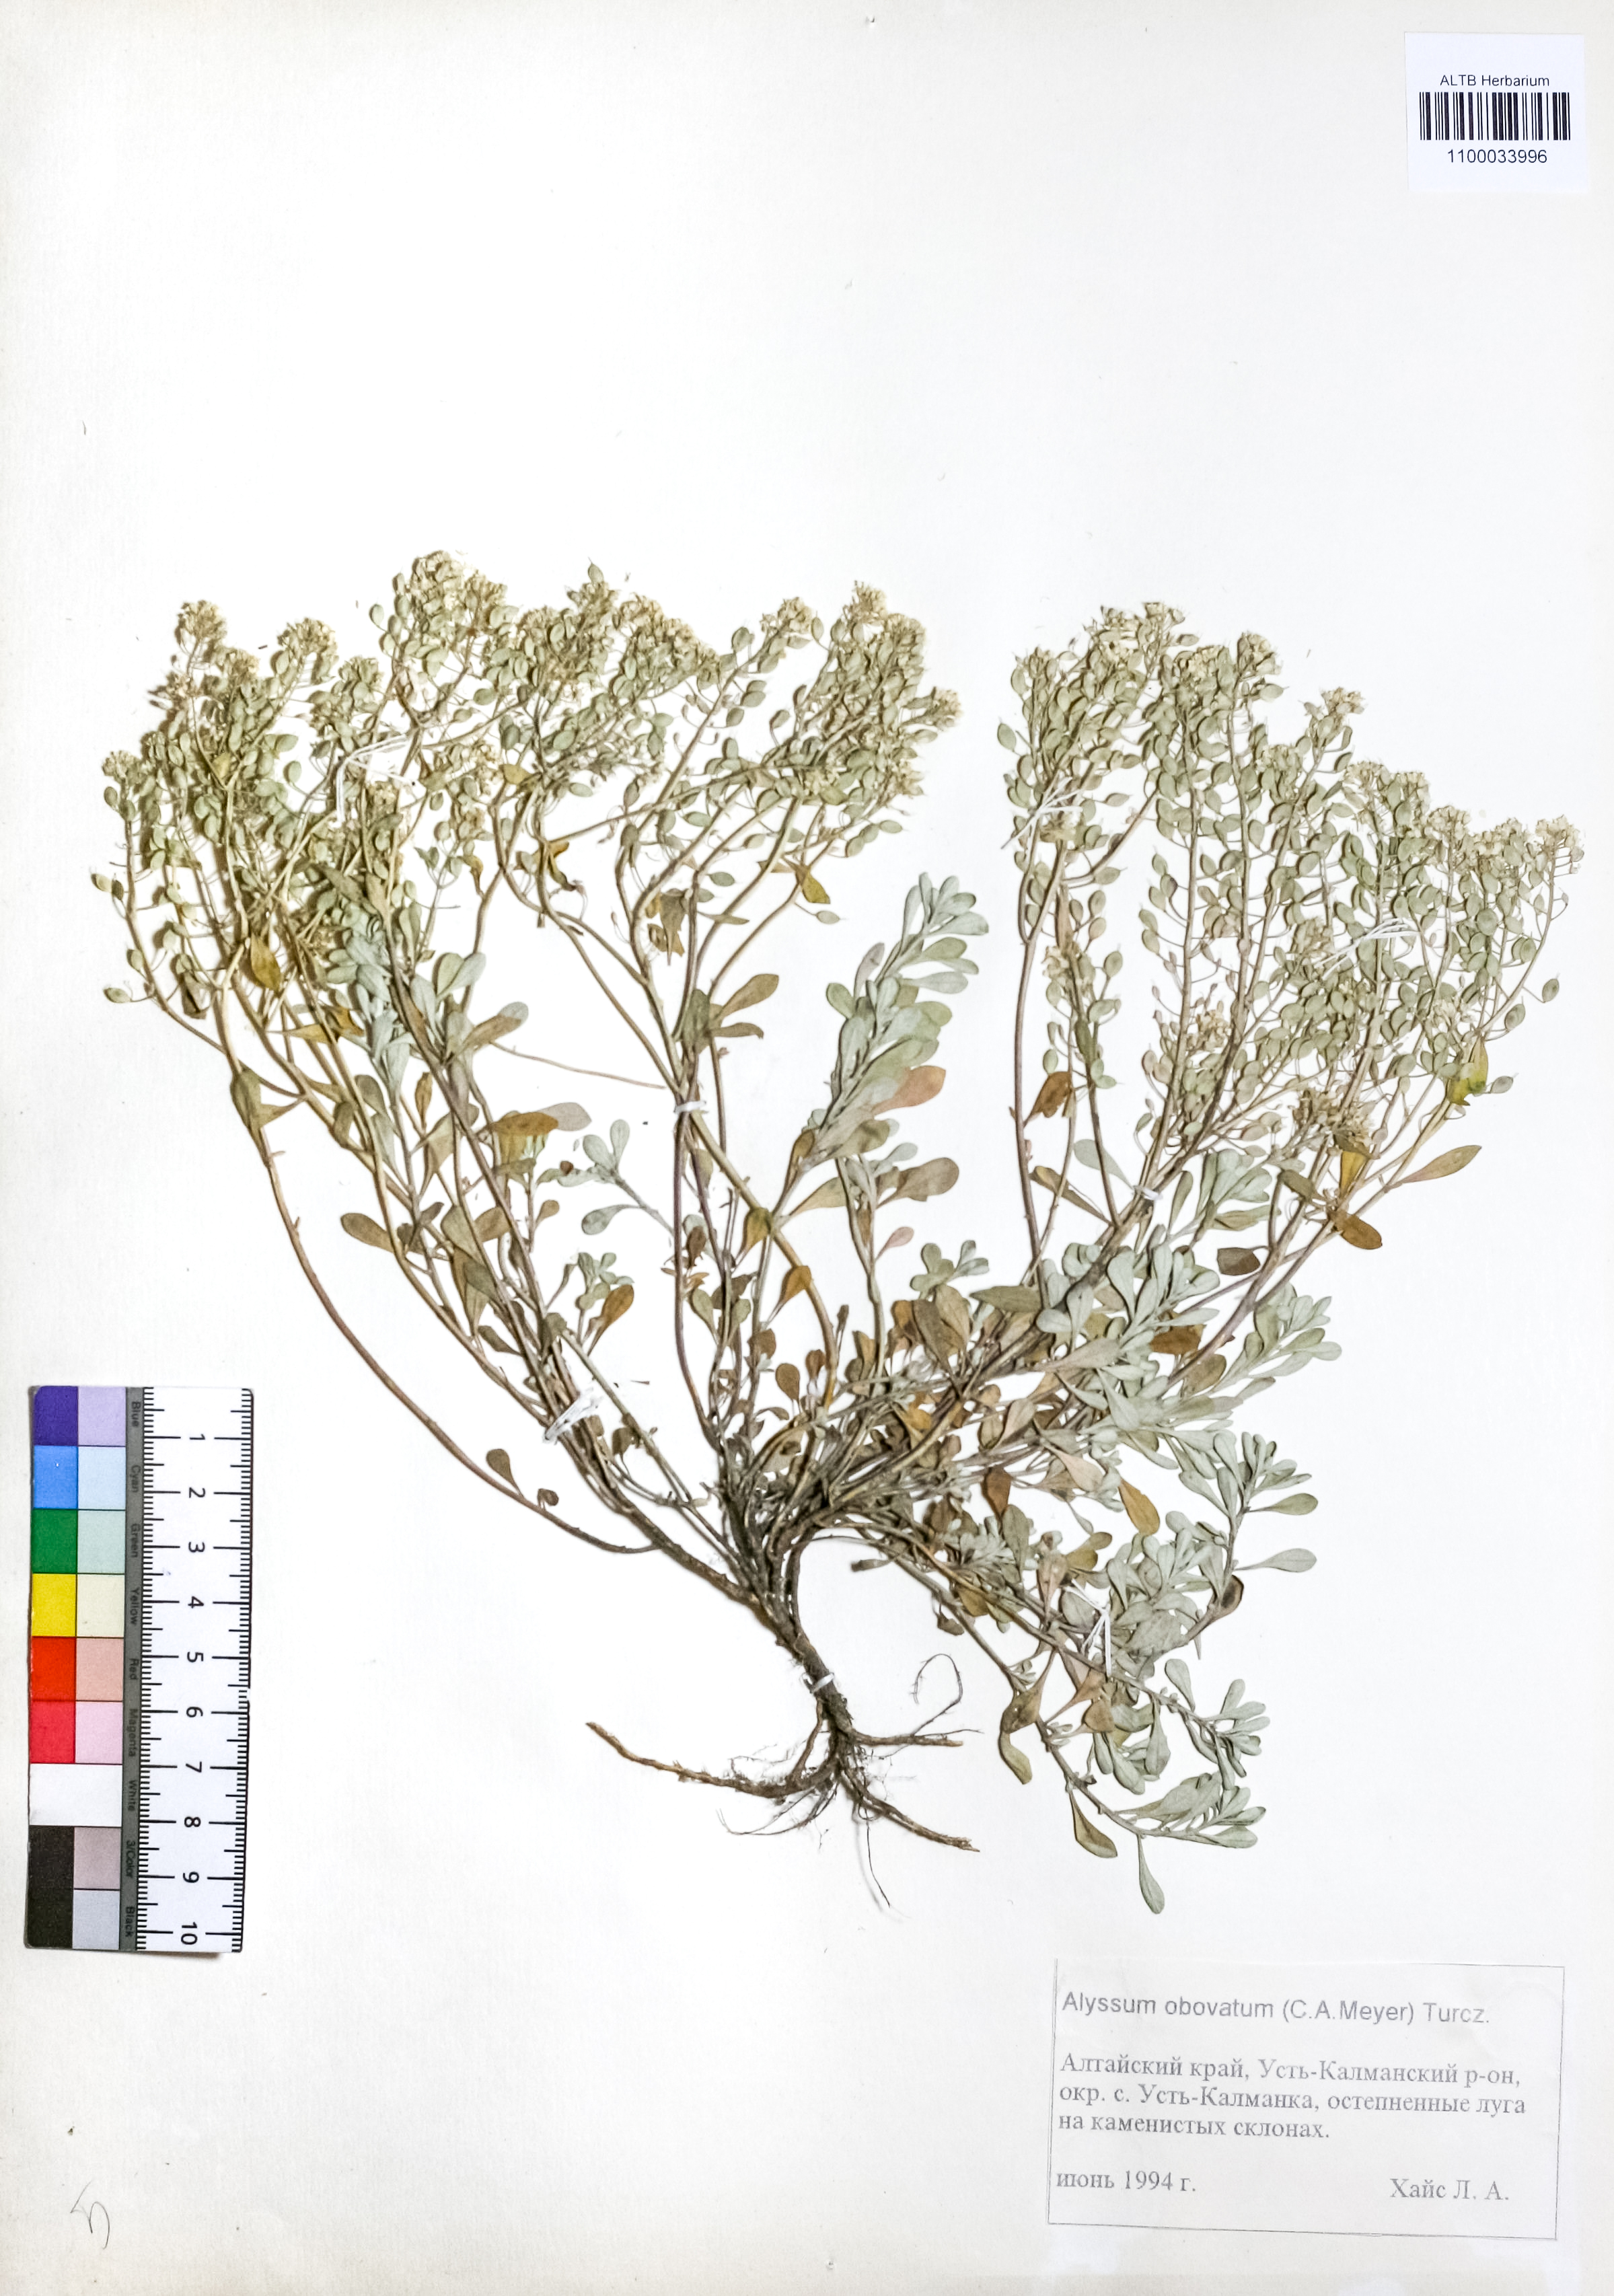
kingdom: Plantae
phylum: Tracheophyta
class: Magnoliopsida
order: Brassicales
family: Brassicaceae
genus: Odontarrhena
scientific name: Odontarrhena obovata
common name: American alyssum
